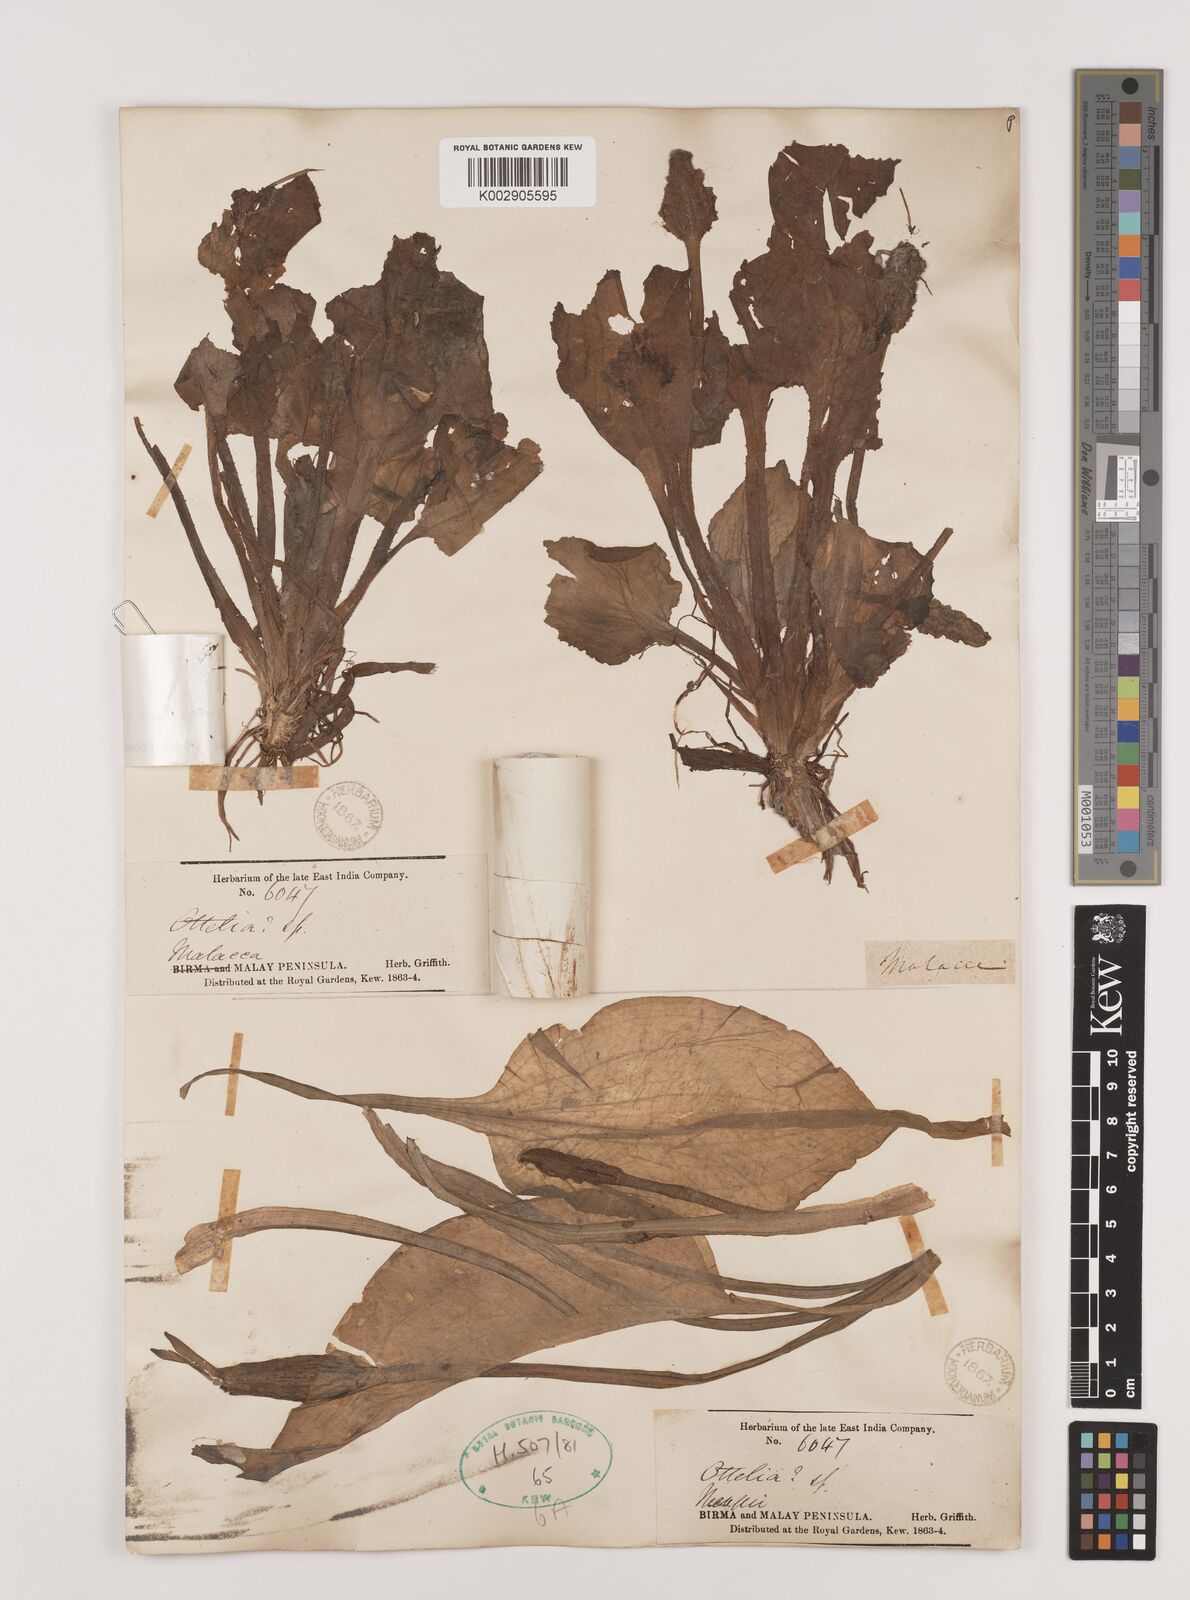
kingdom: Plantae
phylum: Tracheophyta
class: Liliopsida
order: Alismatales
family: Hydrocharitaceae
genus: Ottelia
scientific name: Ottelia alismoides
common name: Duck-lettuce
